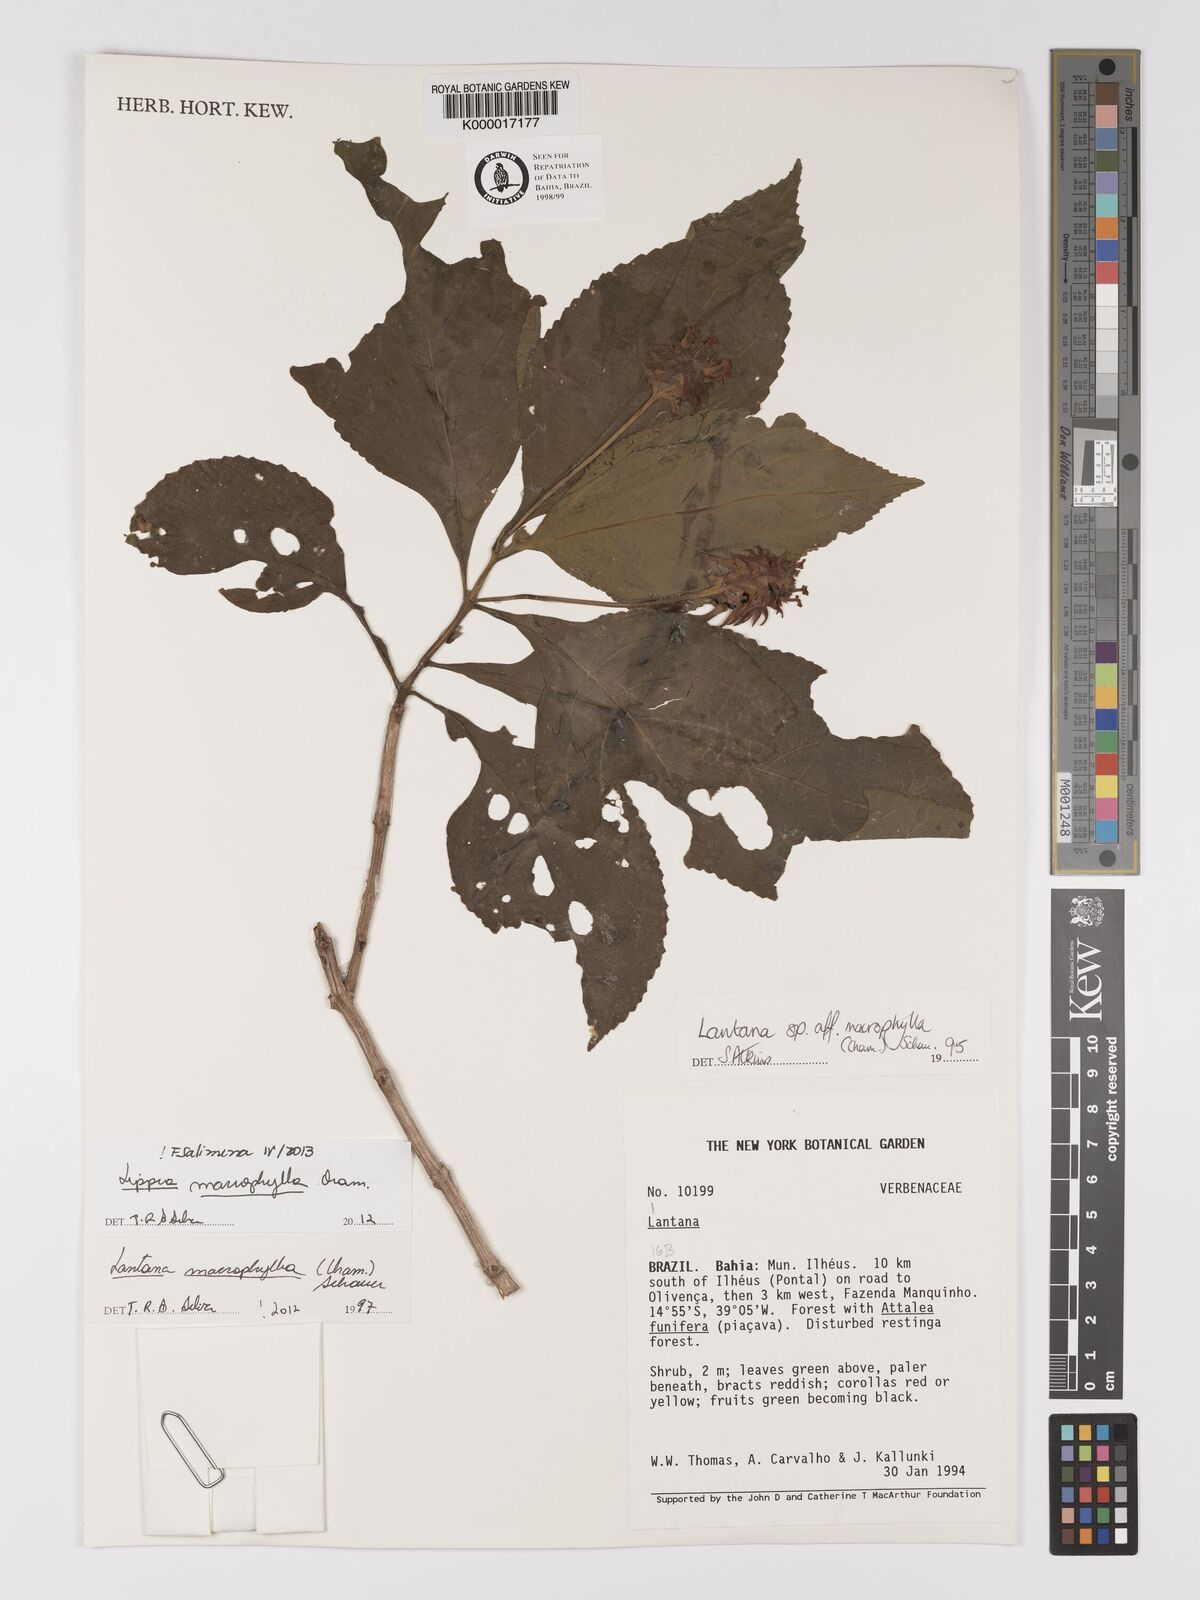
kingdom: Plantae
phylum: Tracheophyta
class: Magnoliopsida
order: Lamiales
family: Verbenaceae
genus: Lippia
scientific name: Lippia macrophylla
